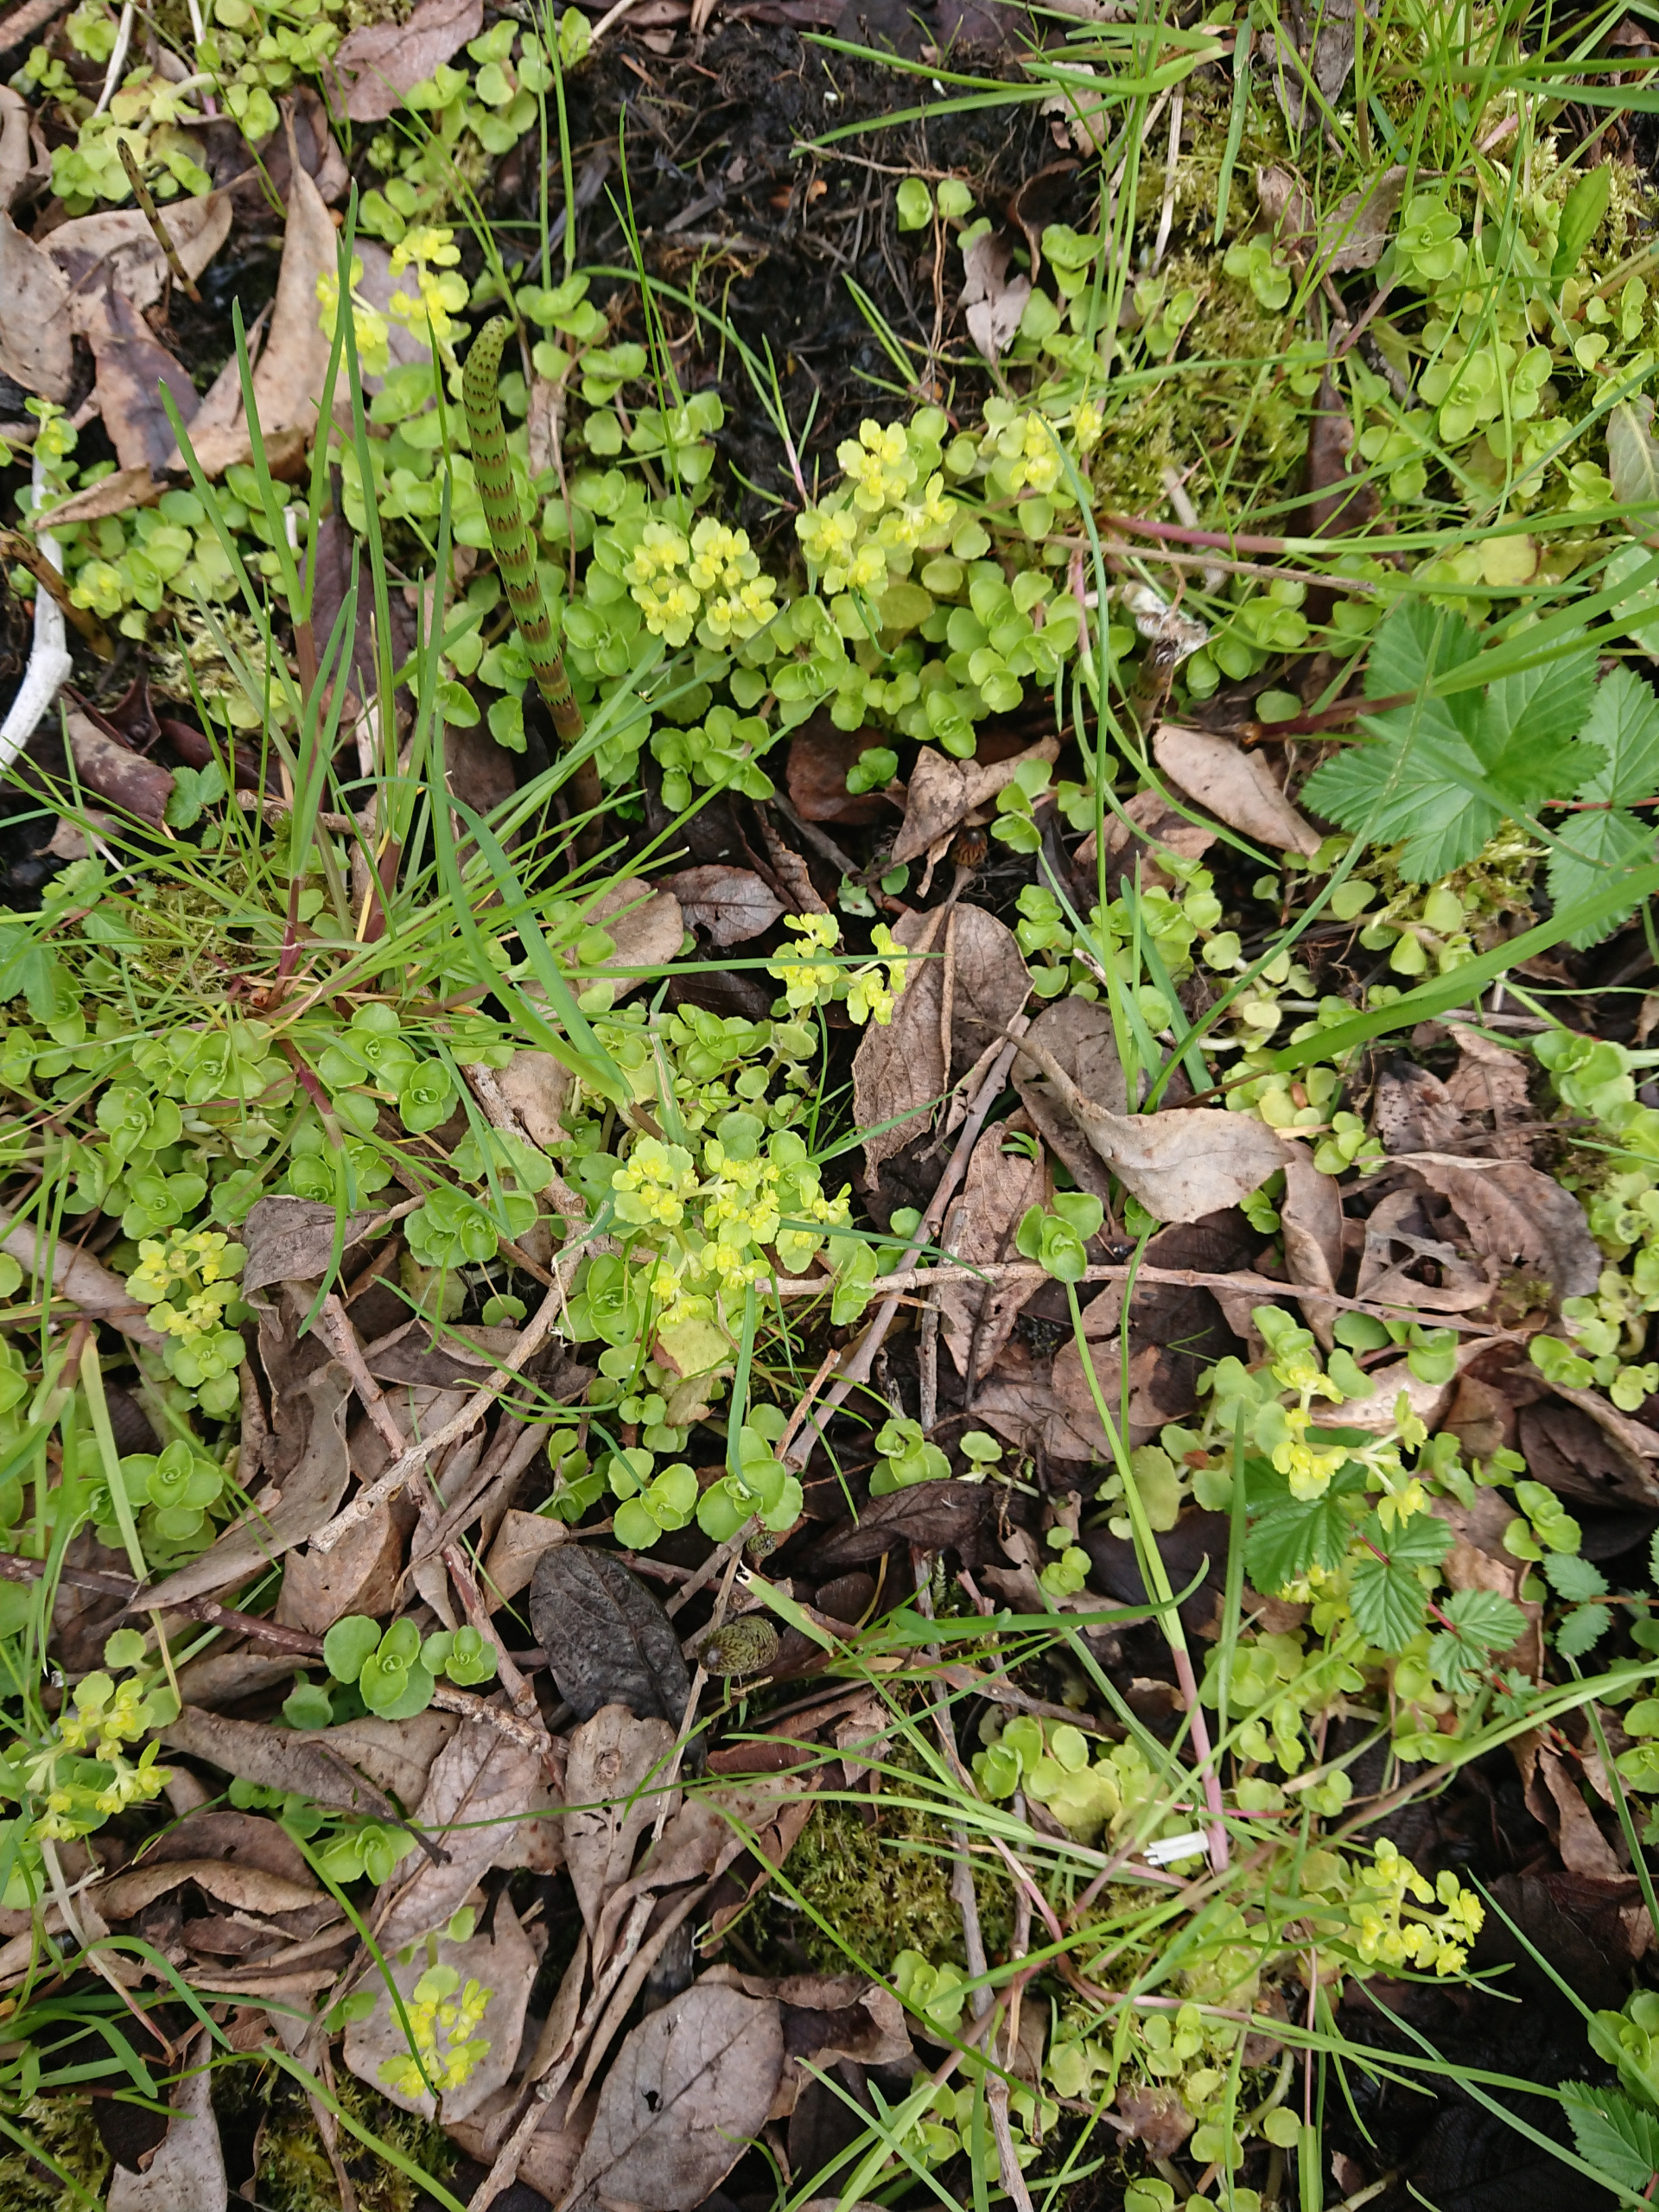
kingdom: Plantae
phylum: Tracheophyta
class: Magnoliopsida
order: Saxifragales
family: Saxifragaceae
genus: Chrysosplenium
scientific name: Chrysosplenium oppositifolium
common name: Småbladet milturt
